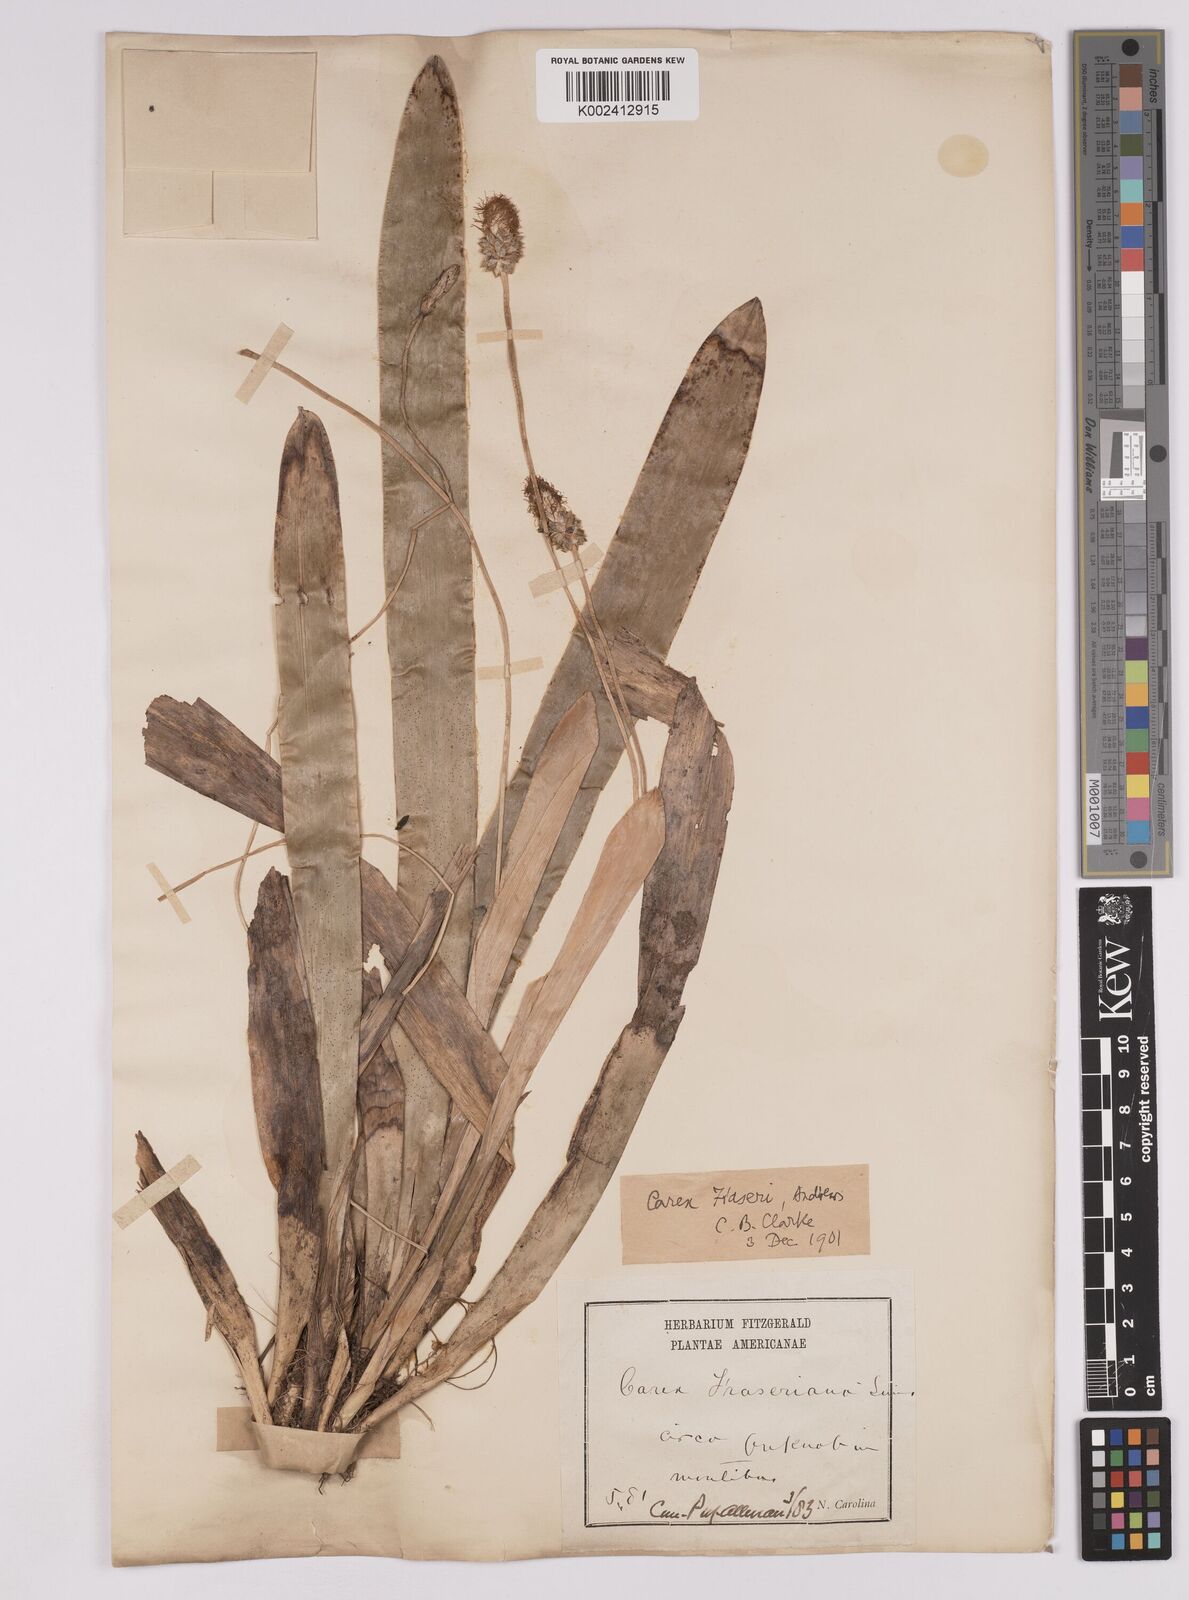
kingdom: Plantae
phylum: Tracheophyta
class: Liliopsida
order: Poales
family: Cyperaceae
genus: Carex
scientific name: Carex fraseriana
